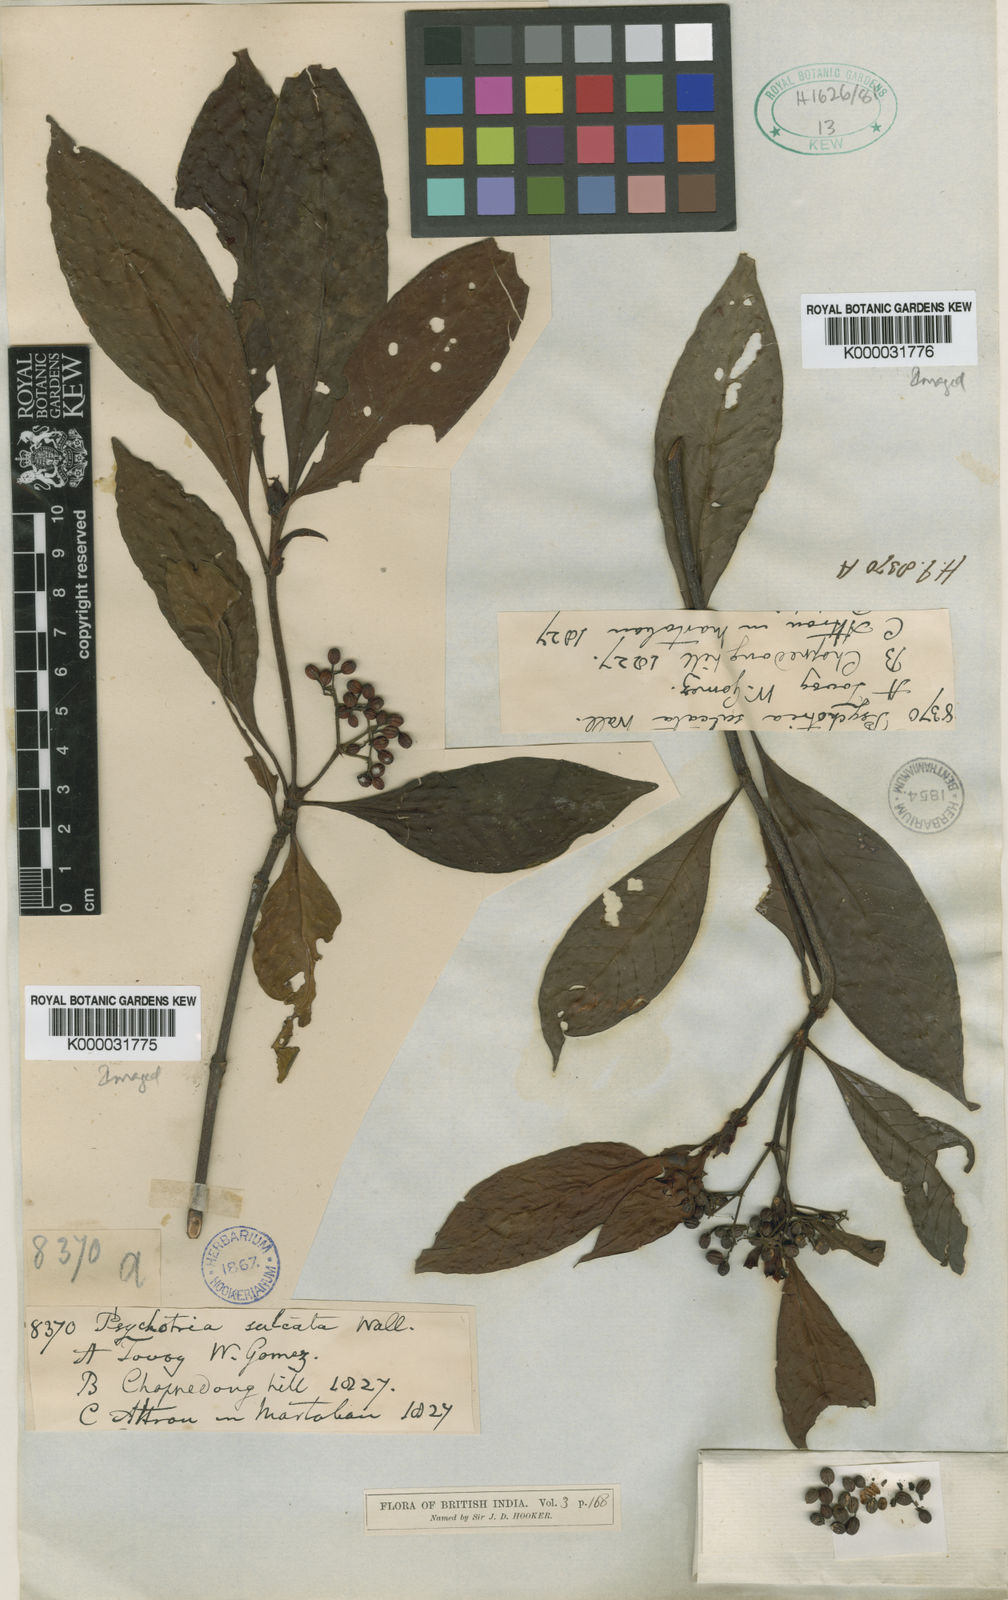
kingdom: Plantae
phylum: Tracheophyta
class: Magnoliopsida
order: Gentianales
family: Rubiaceae
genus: Psychotria
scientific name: Psychotria sulcata
